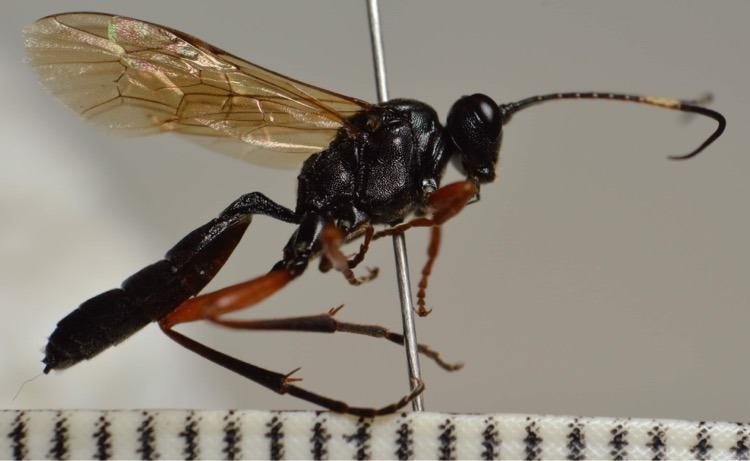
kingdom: Animalia
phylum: Arthropoda
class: Insecta
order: Hymenoptera
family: Ichneumonidae
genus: Eurylabus
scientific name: Eurylabus torvus
